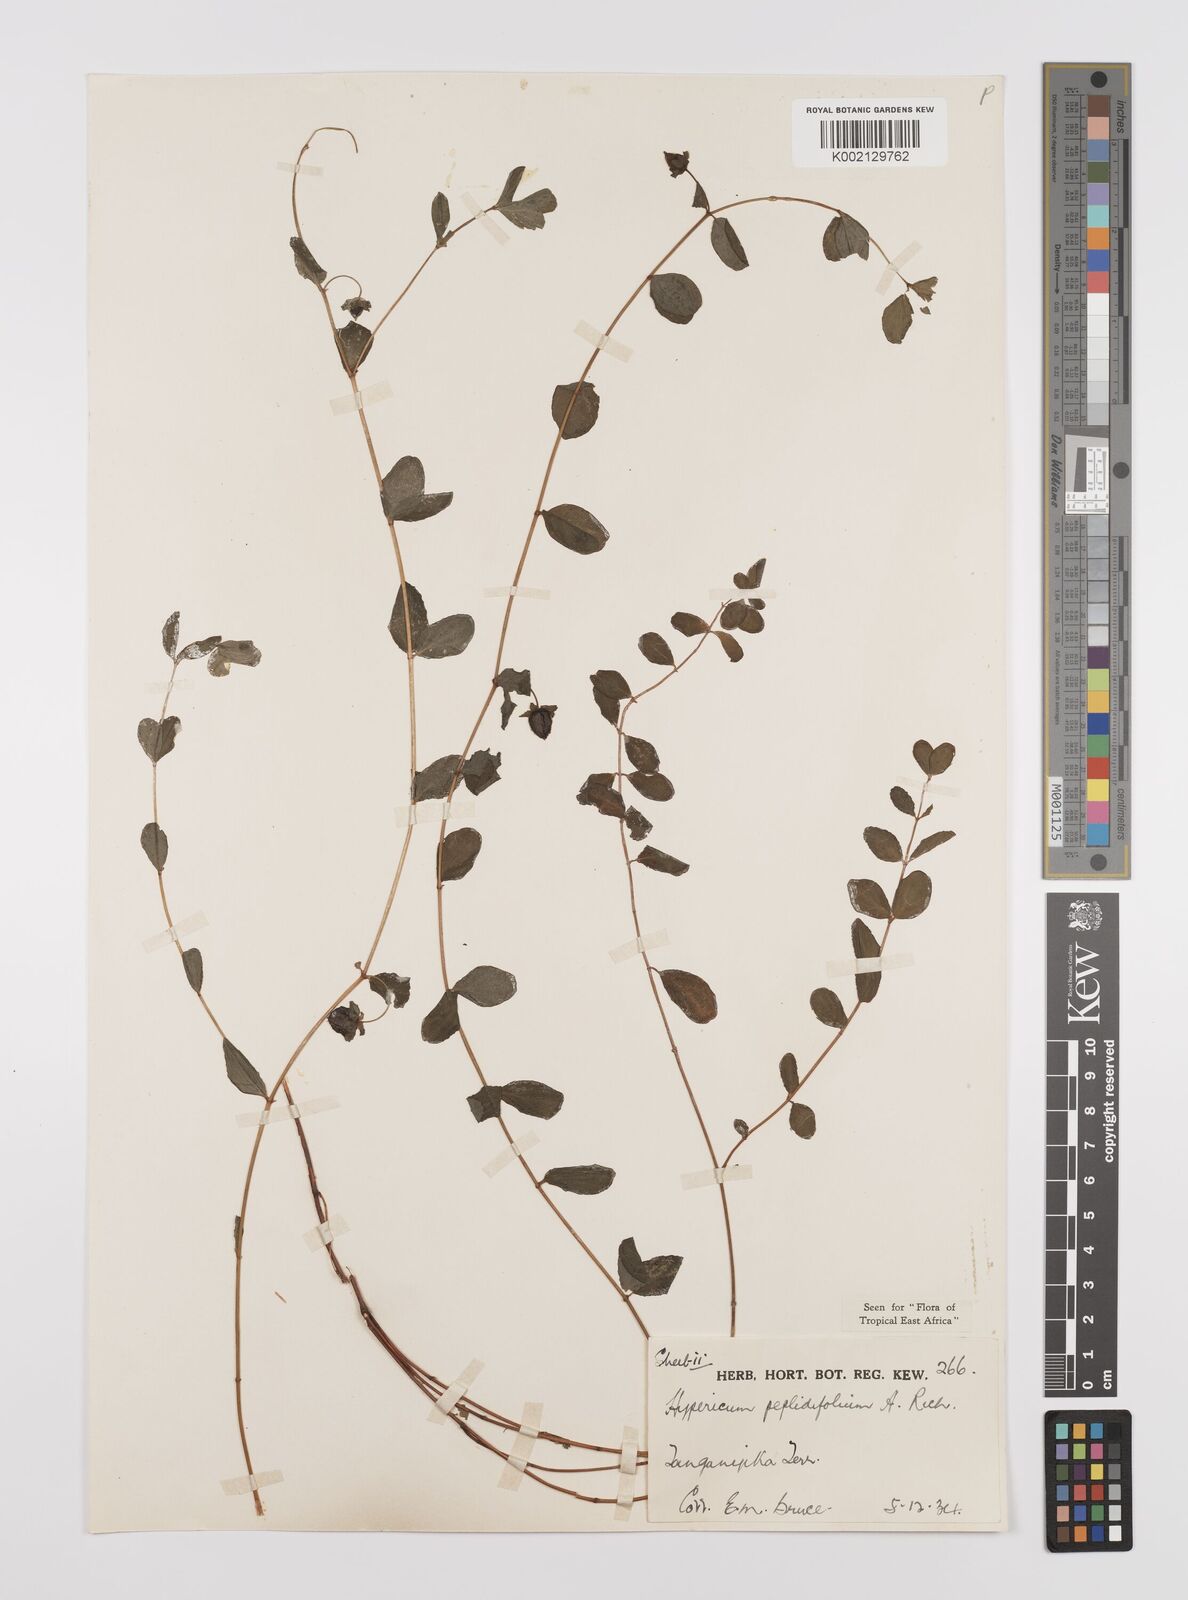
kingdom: Plantae
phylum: Tracheophyta
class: Magnoliopsida
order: Malpighiales
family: Hypericaceae
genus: Hypericum
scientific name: Hypericum peplidifolium
